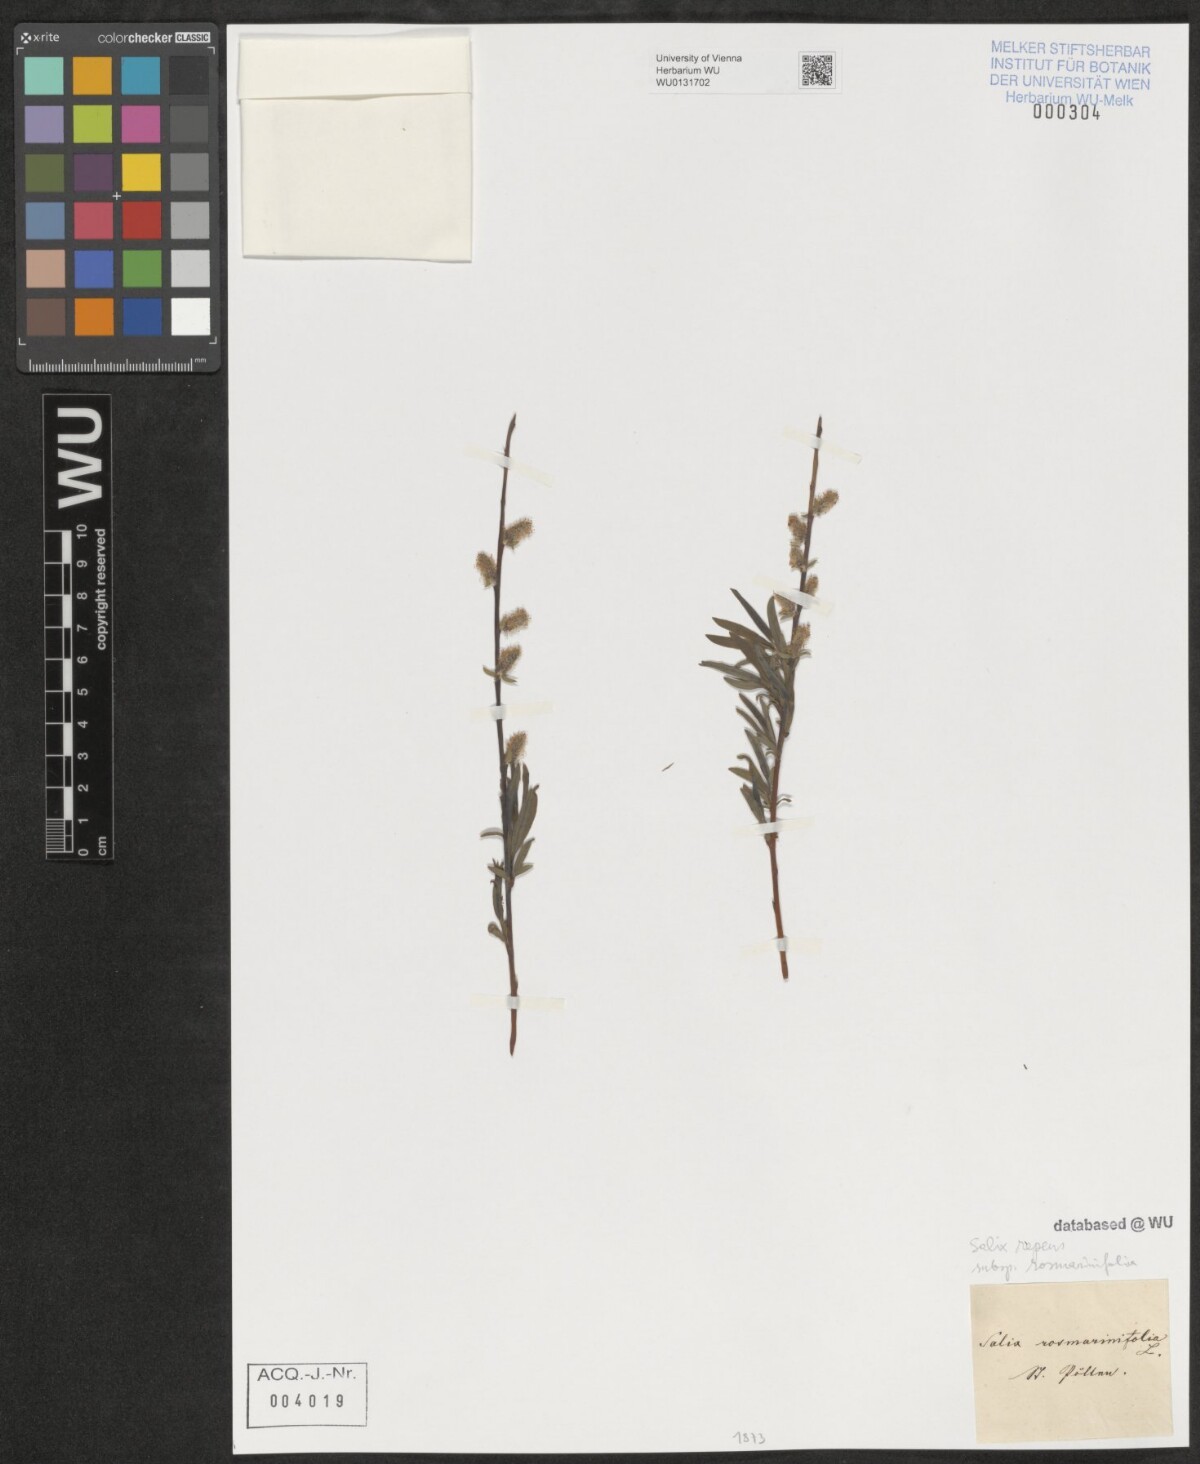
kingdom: Plantae
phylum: Tracheophyta
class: Magnoliopsida
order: Malpighiales
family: Salicaceae
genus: Salix
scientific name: Salix repens
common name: Creeping willow
